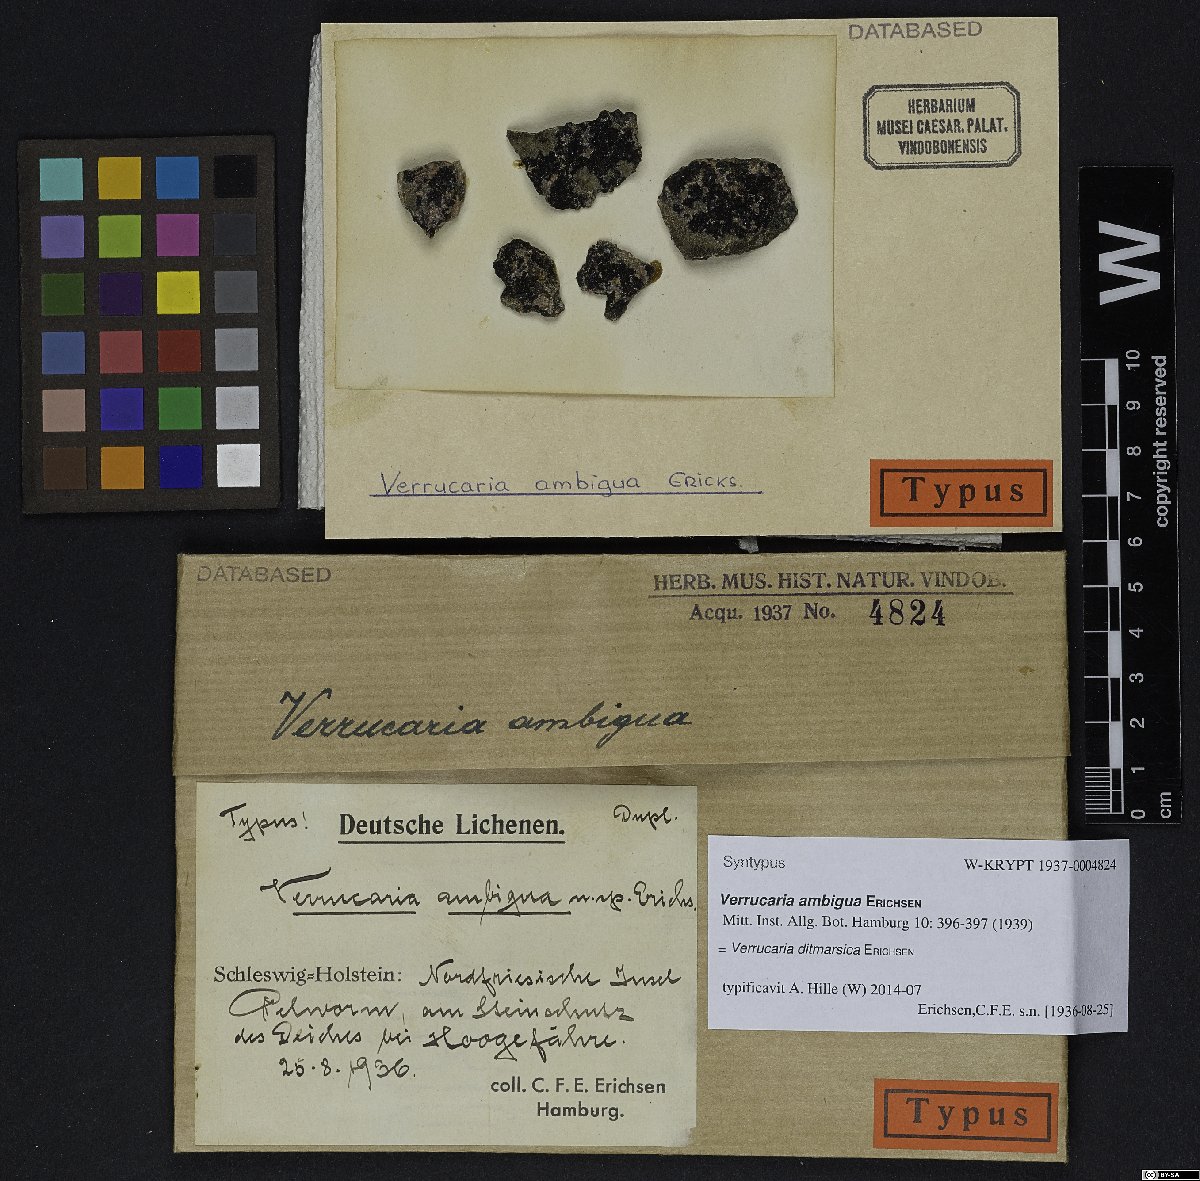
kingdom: Fungi
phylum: Ascomycota
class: Eurotiomycetes
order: Verrucariales
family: Verrucariaceae
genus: Verrucaria
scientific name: Verrucaria erichsenii
